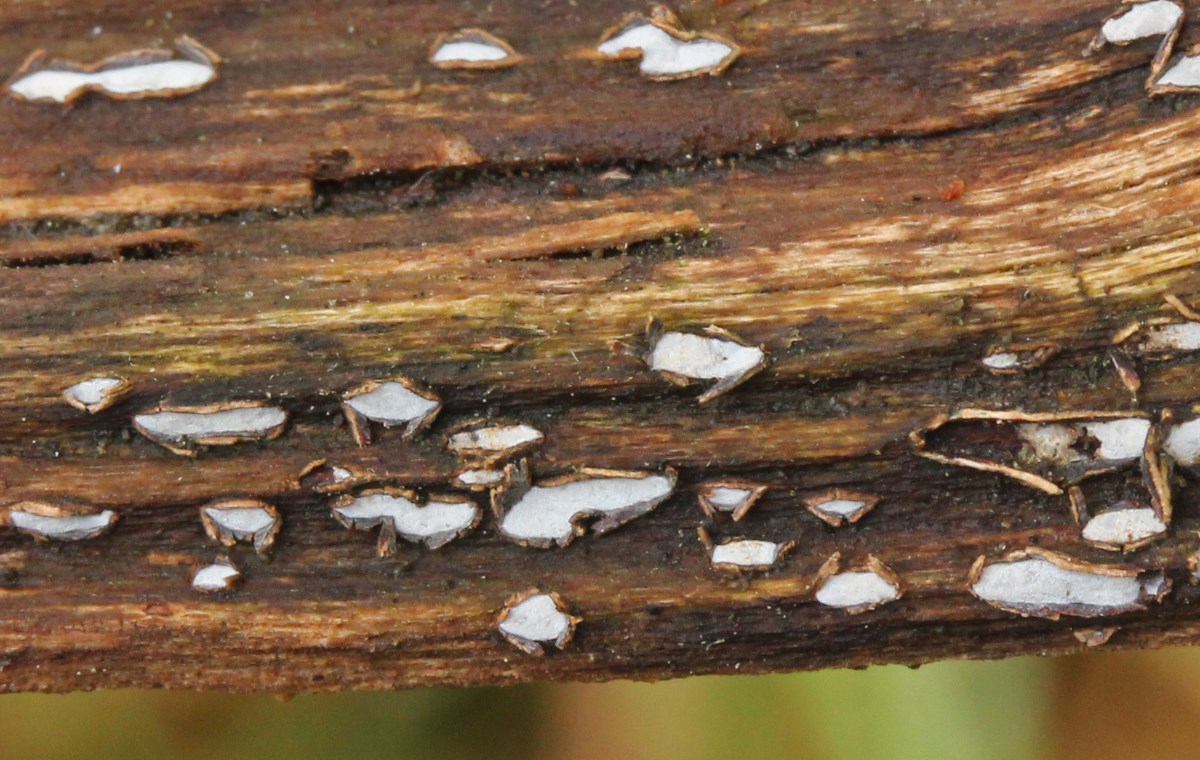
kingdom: Fungi
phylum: Ascomycota
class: Leotiomycetes
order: Chaetomellales
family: Marthamycetaceae
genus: Propolis
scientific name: Propolis farinosa
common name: almindelig vedsprængerskive
